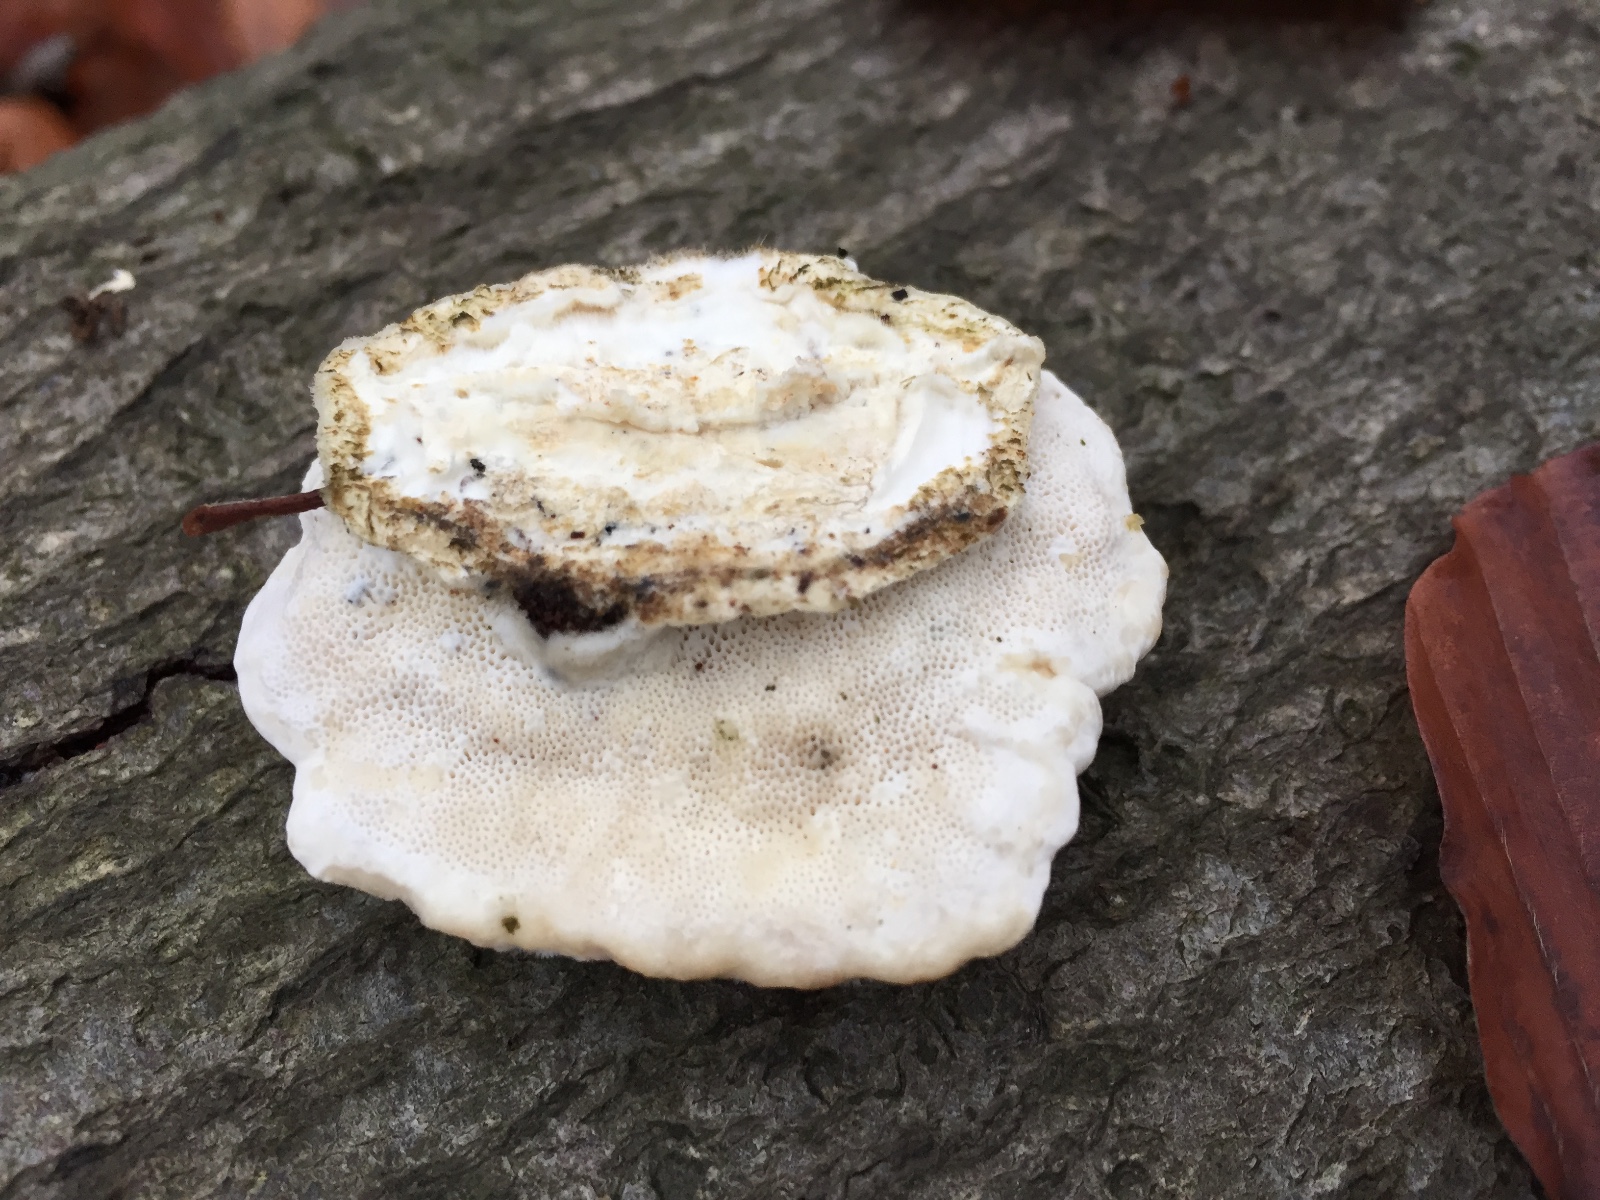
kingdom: Fungi
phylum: Basidiomycota
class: Agaricomycetes
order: Polyporales
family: Polyporaceae
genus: Trametes
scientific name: Trametes hirsuta
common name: håret læderporesvamp
